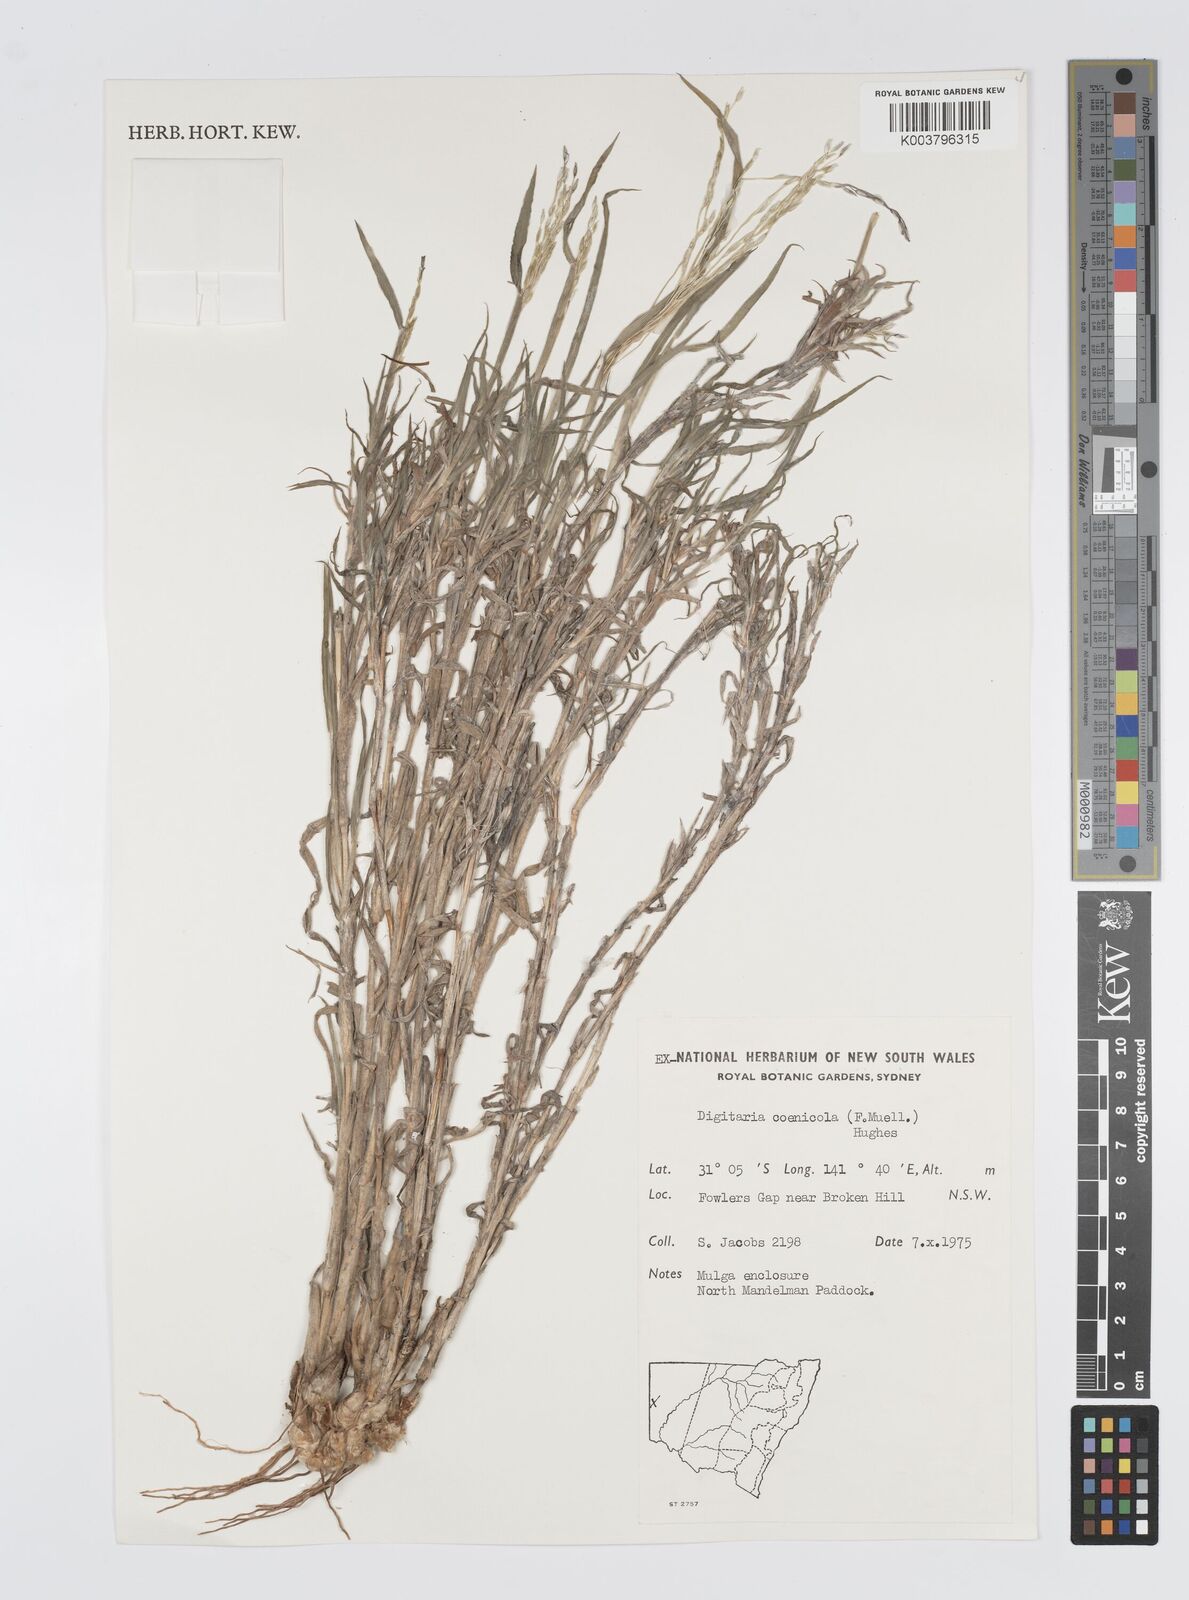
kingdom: Plantae
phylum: Tracheophyta
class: Liliopsida
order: Poales
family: Poaceae
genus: Digitaria
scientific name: Digitaria coenicola
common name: Kanta grass
